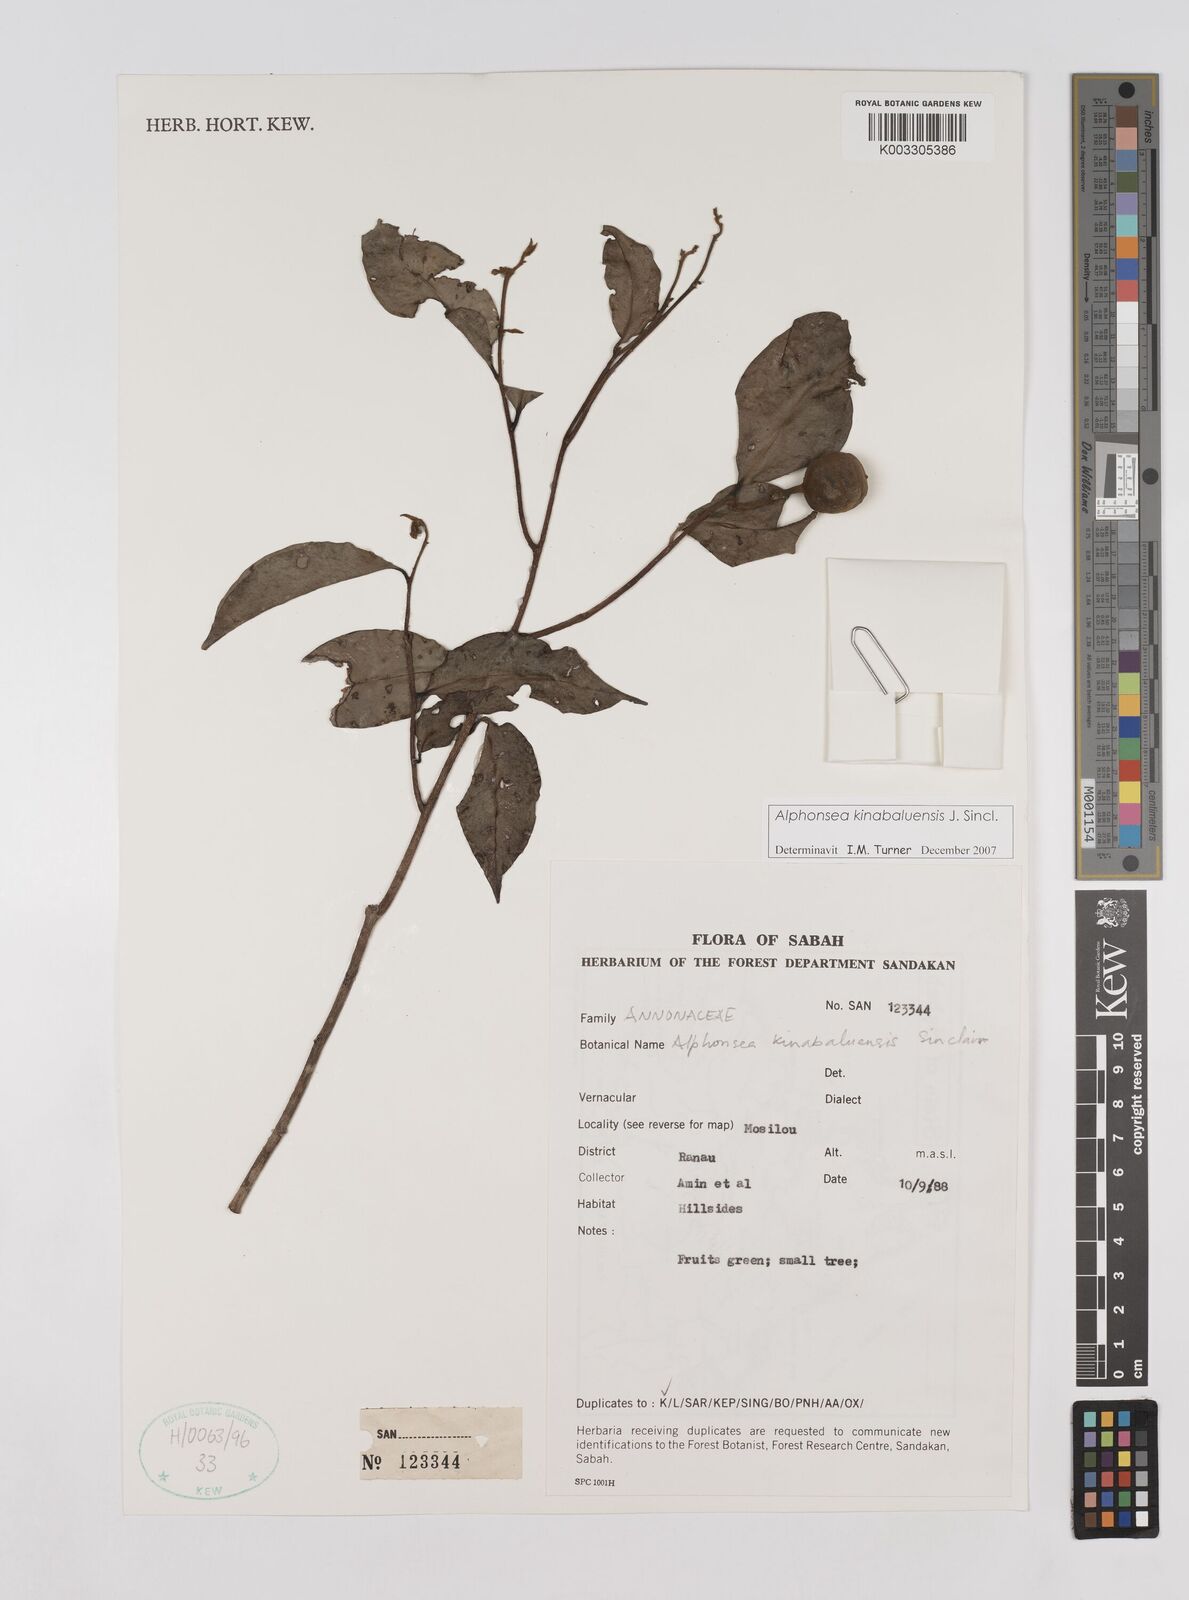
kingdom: Plantae
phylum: Tracheophyta
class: Magnoliopsida
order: Magnoliales
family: Annonaceae
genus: Alphonsea
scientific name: Alphonsea kinabaluensis
